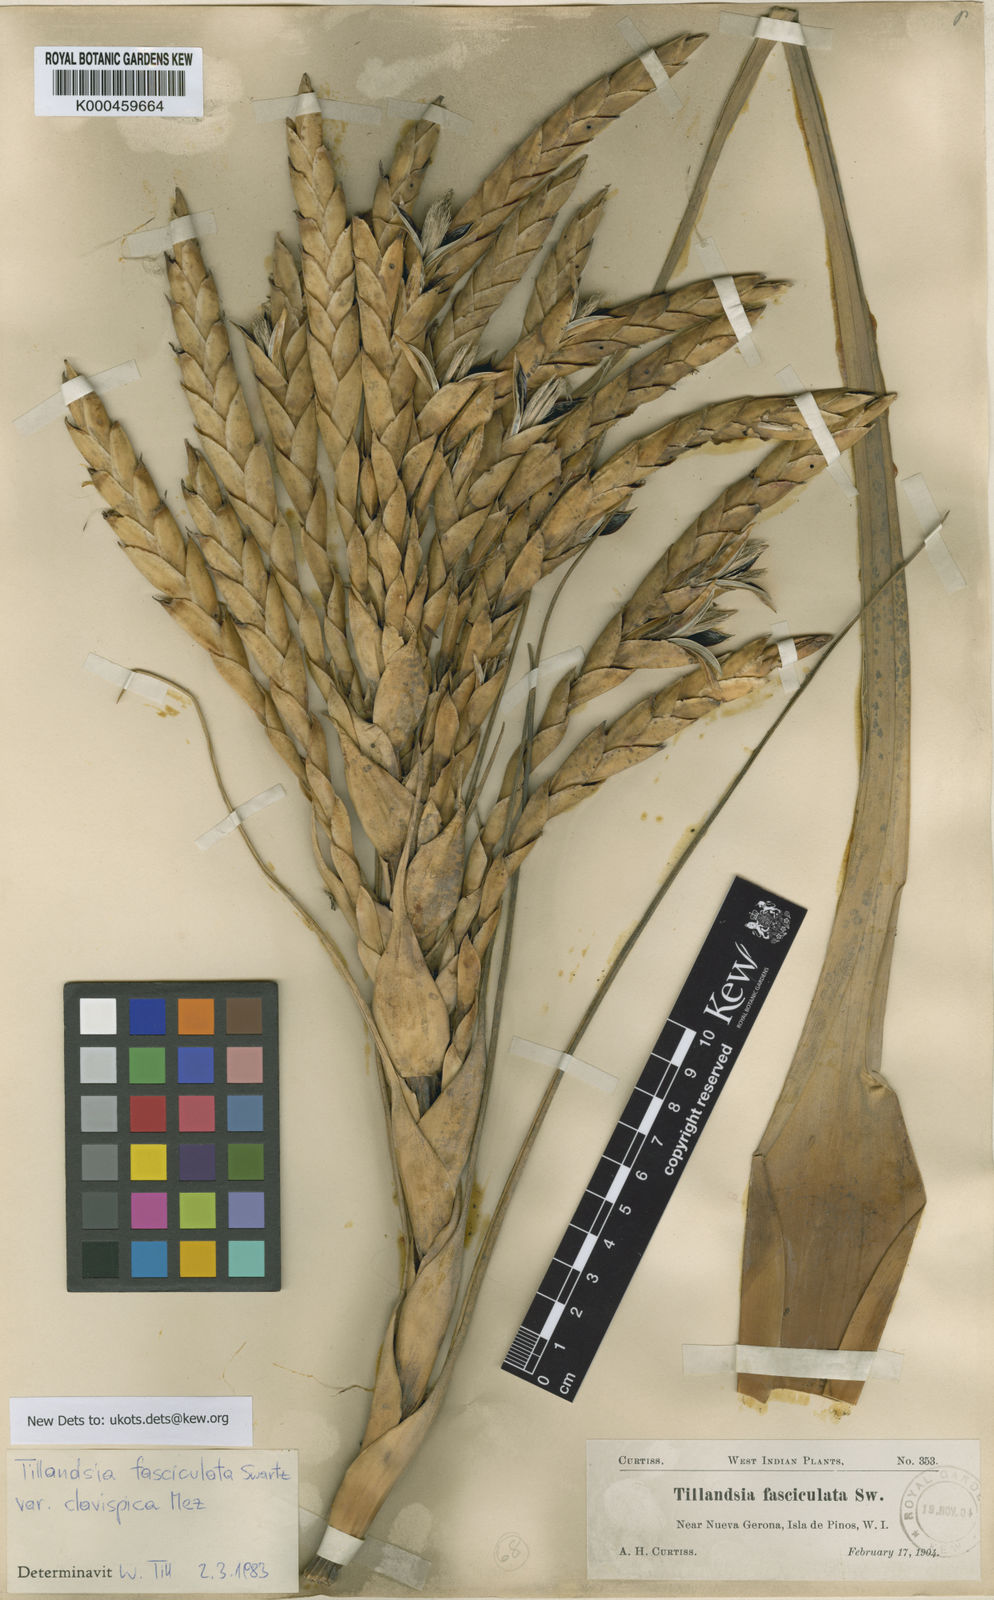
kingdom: Plantae
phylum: Tracheophyta
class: Liliopsida
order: Poales
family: Bromeliaceae
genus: Tillandsia
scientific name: Tillandsia fasciculata
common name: Giant airplant
